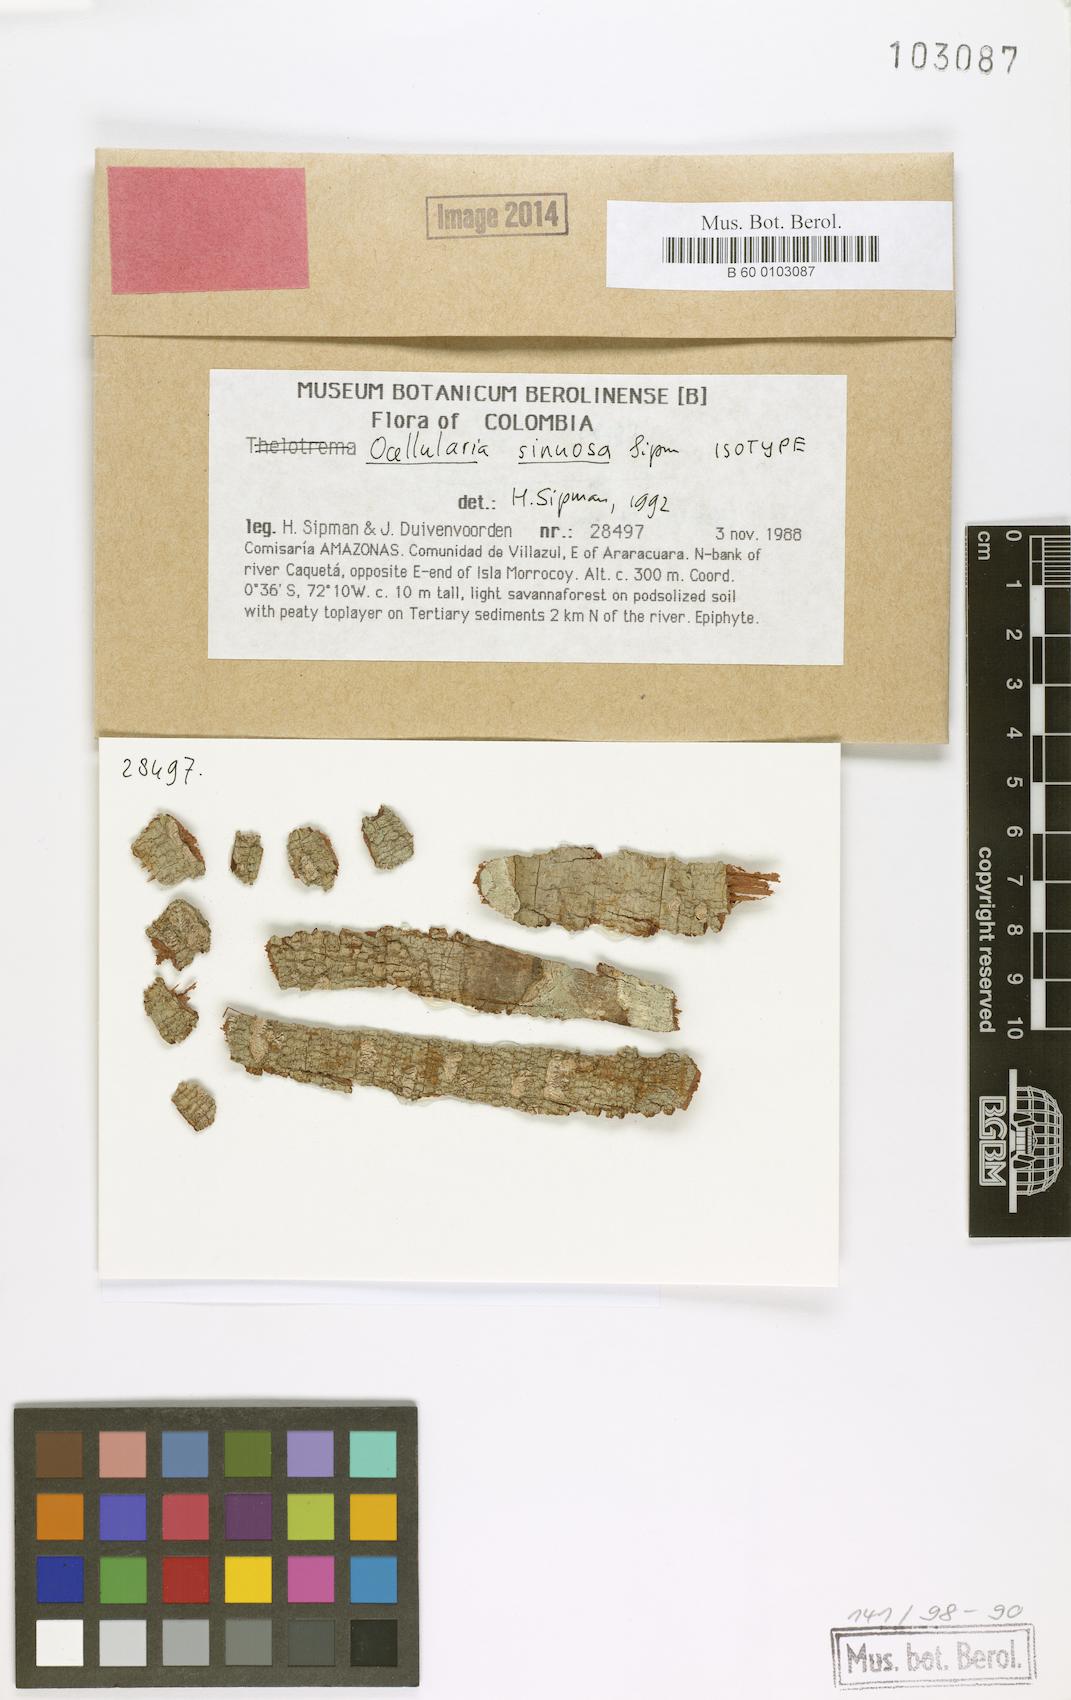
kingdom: Fungi
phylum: Ascomycota
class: Lecanoromycetes
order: Ostropales
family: Graphidaceae
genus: Gyrotrema
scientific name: Gyrotrema sinuosum
